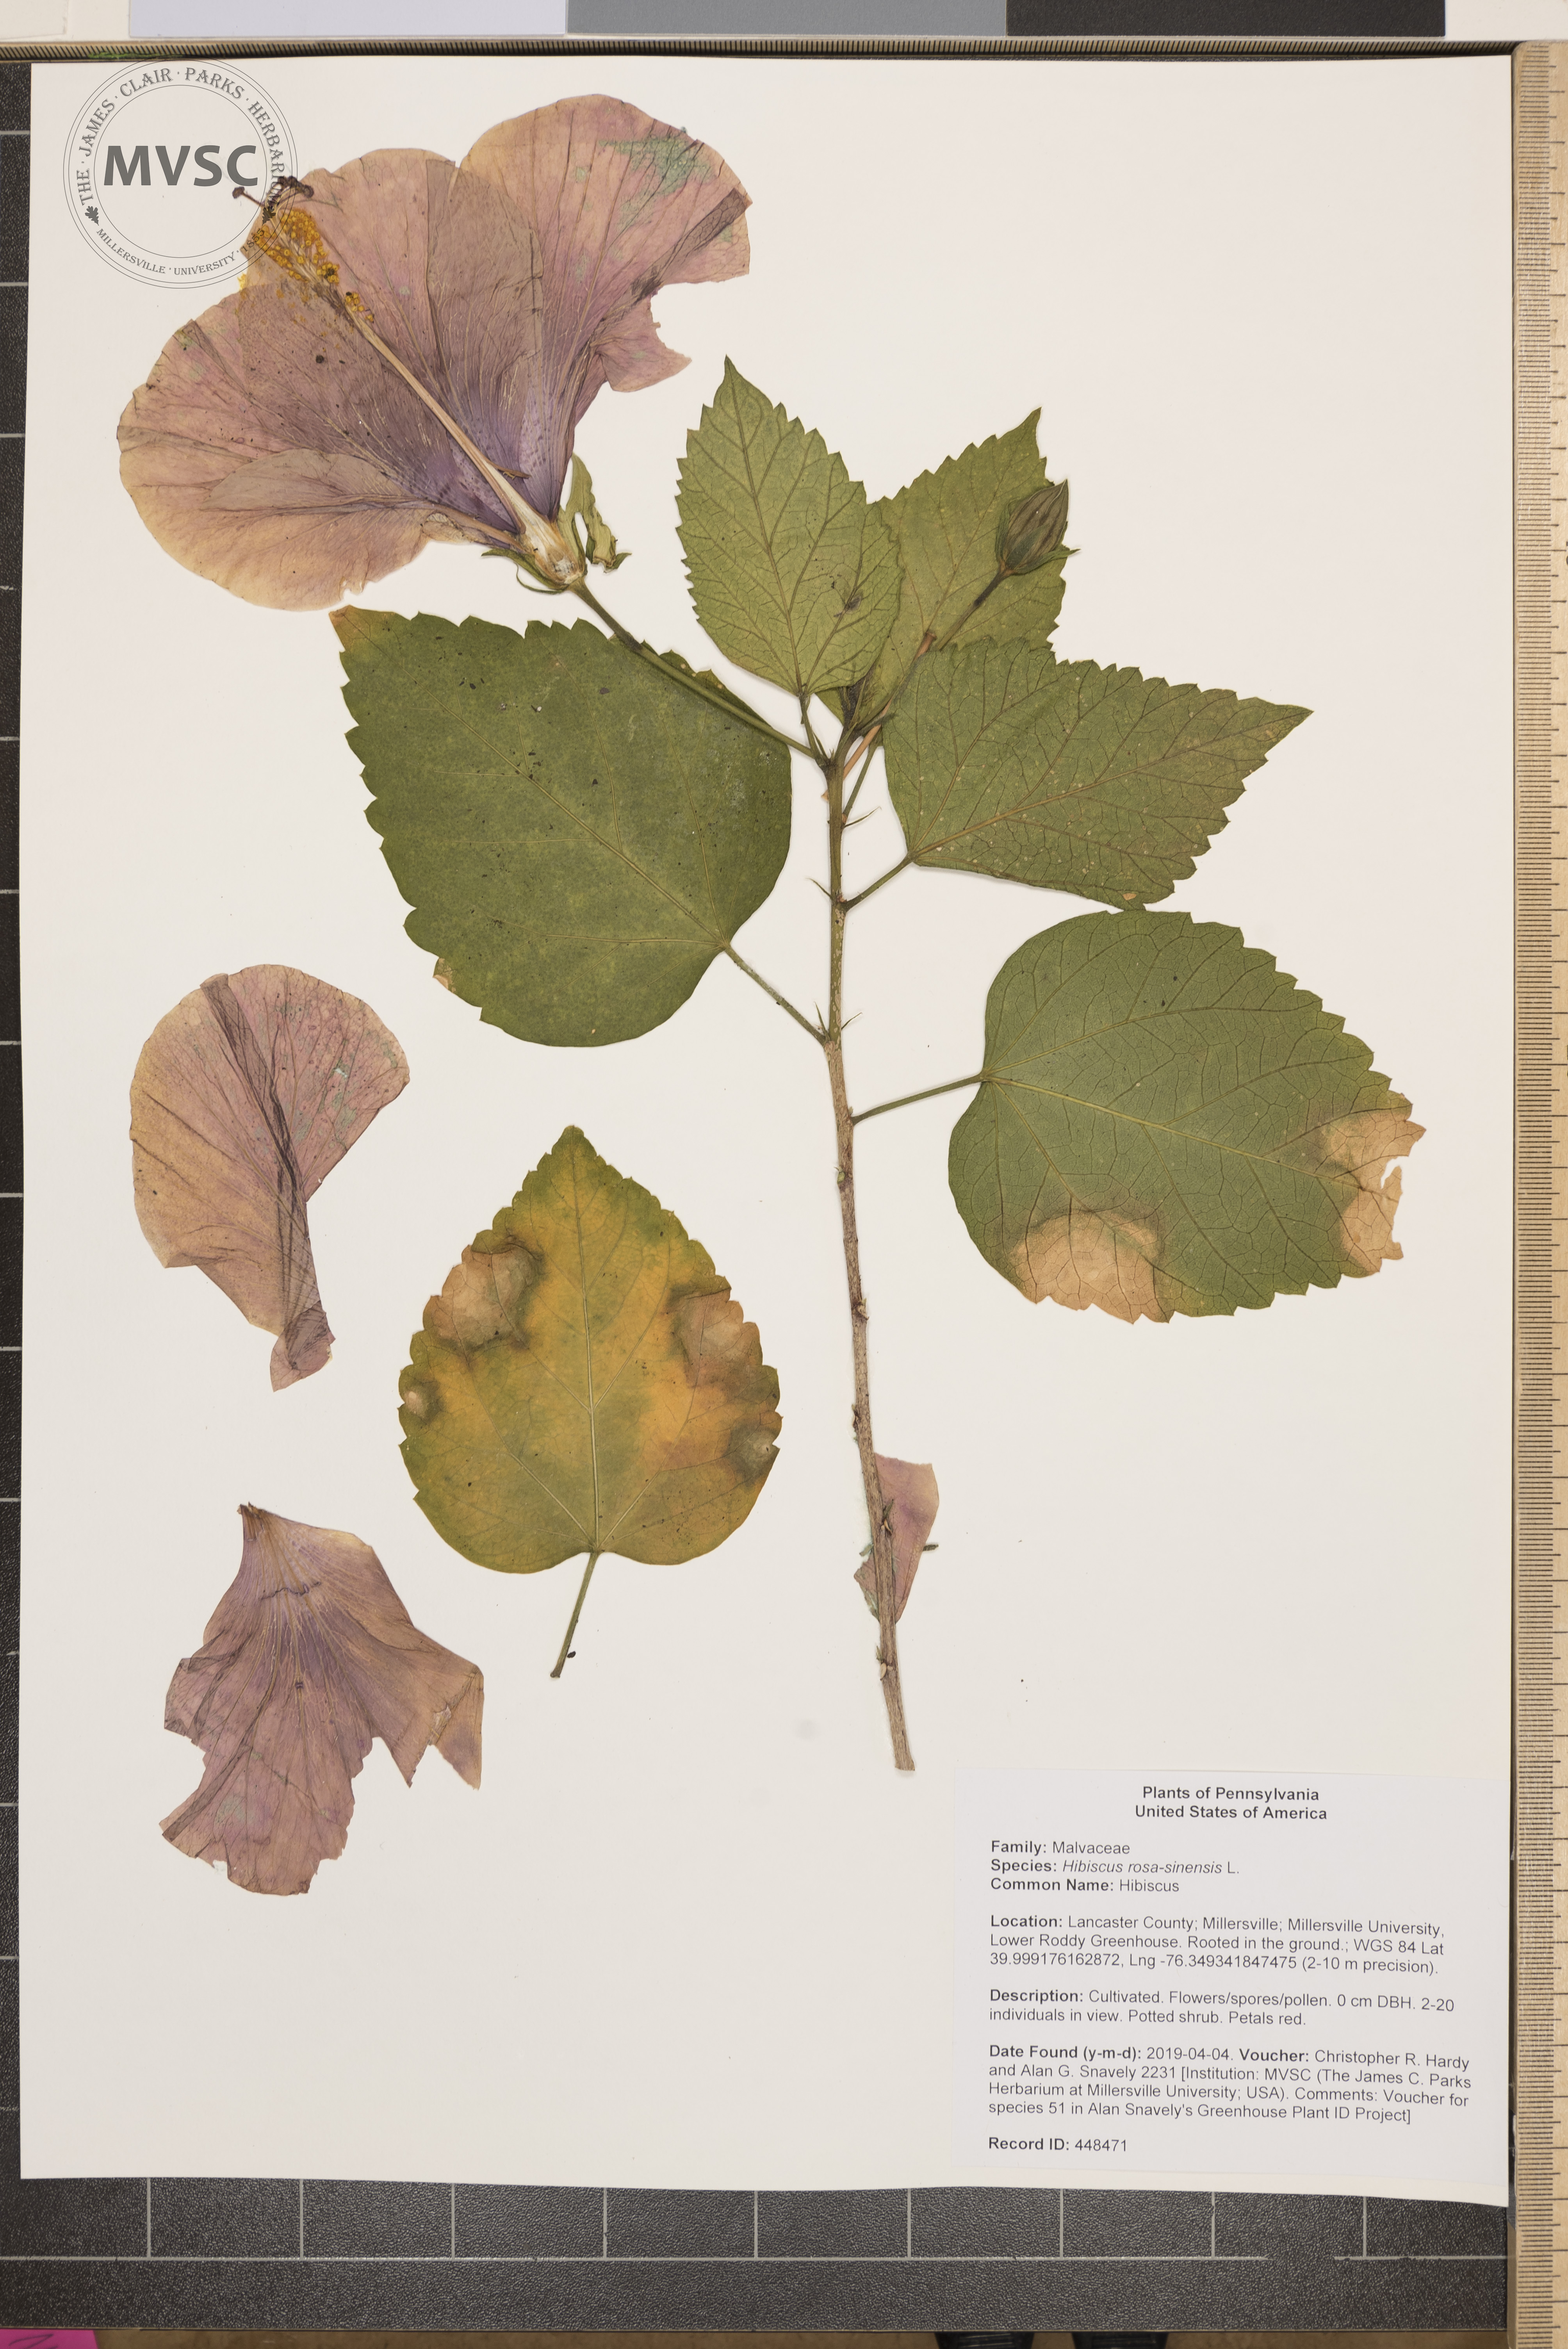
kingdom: Plantae
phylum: Tracheophyta
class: Magnoliopsida
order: Malvales
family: Malvaceae
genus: Hibiscus
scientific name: Hibiscus rosa-sinensis
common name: Hibiscus
